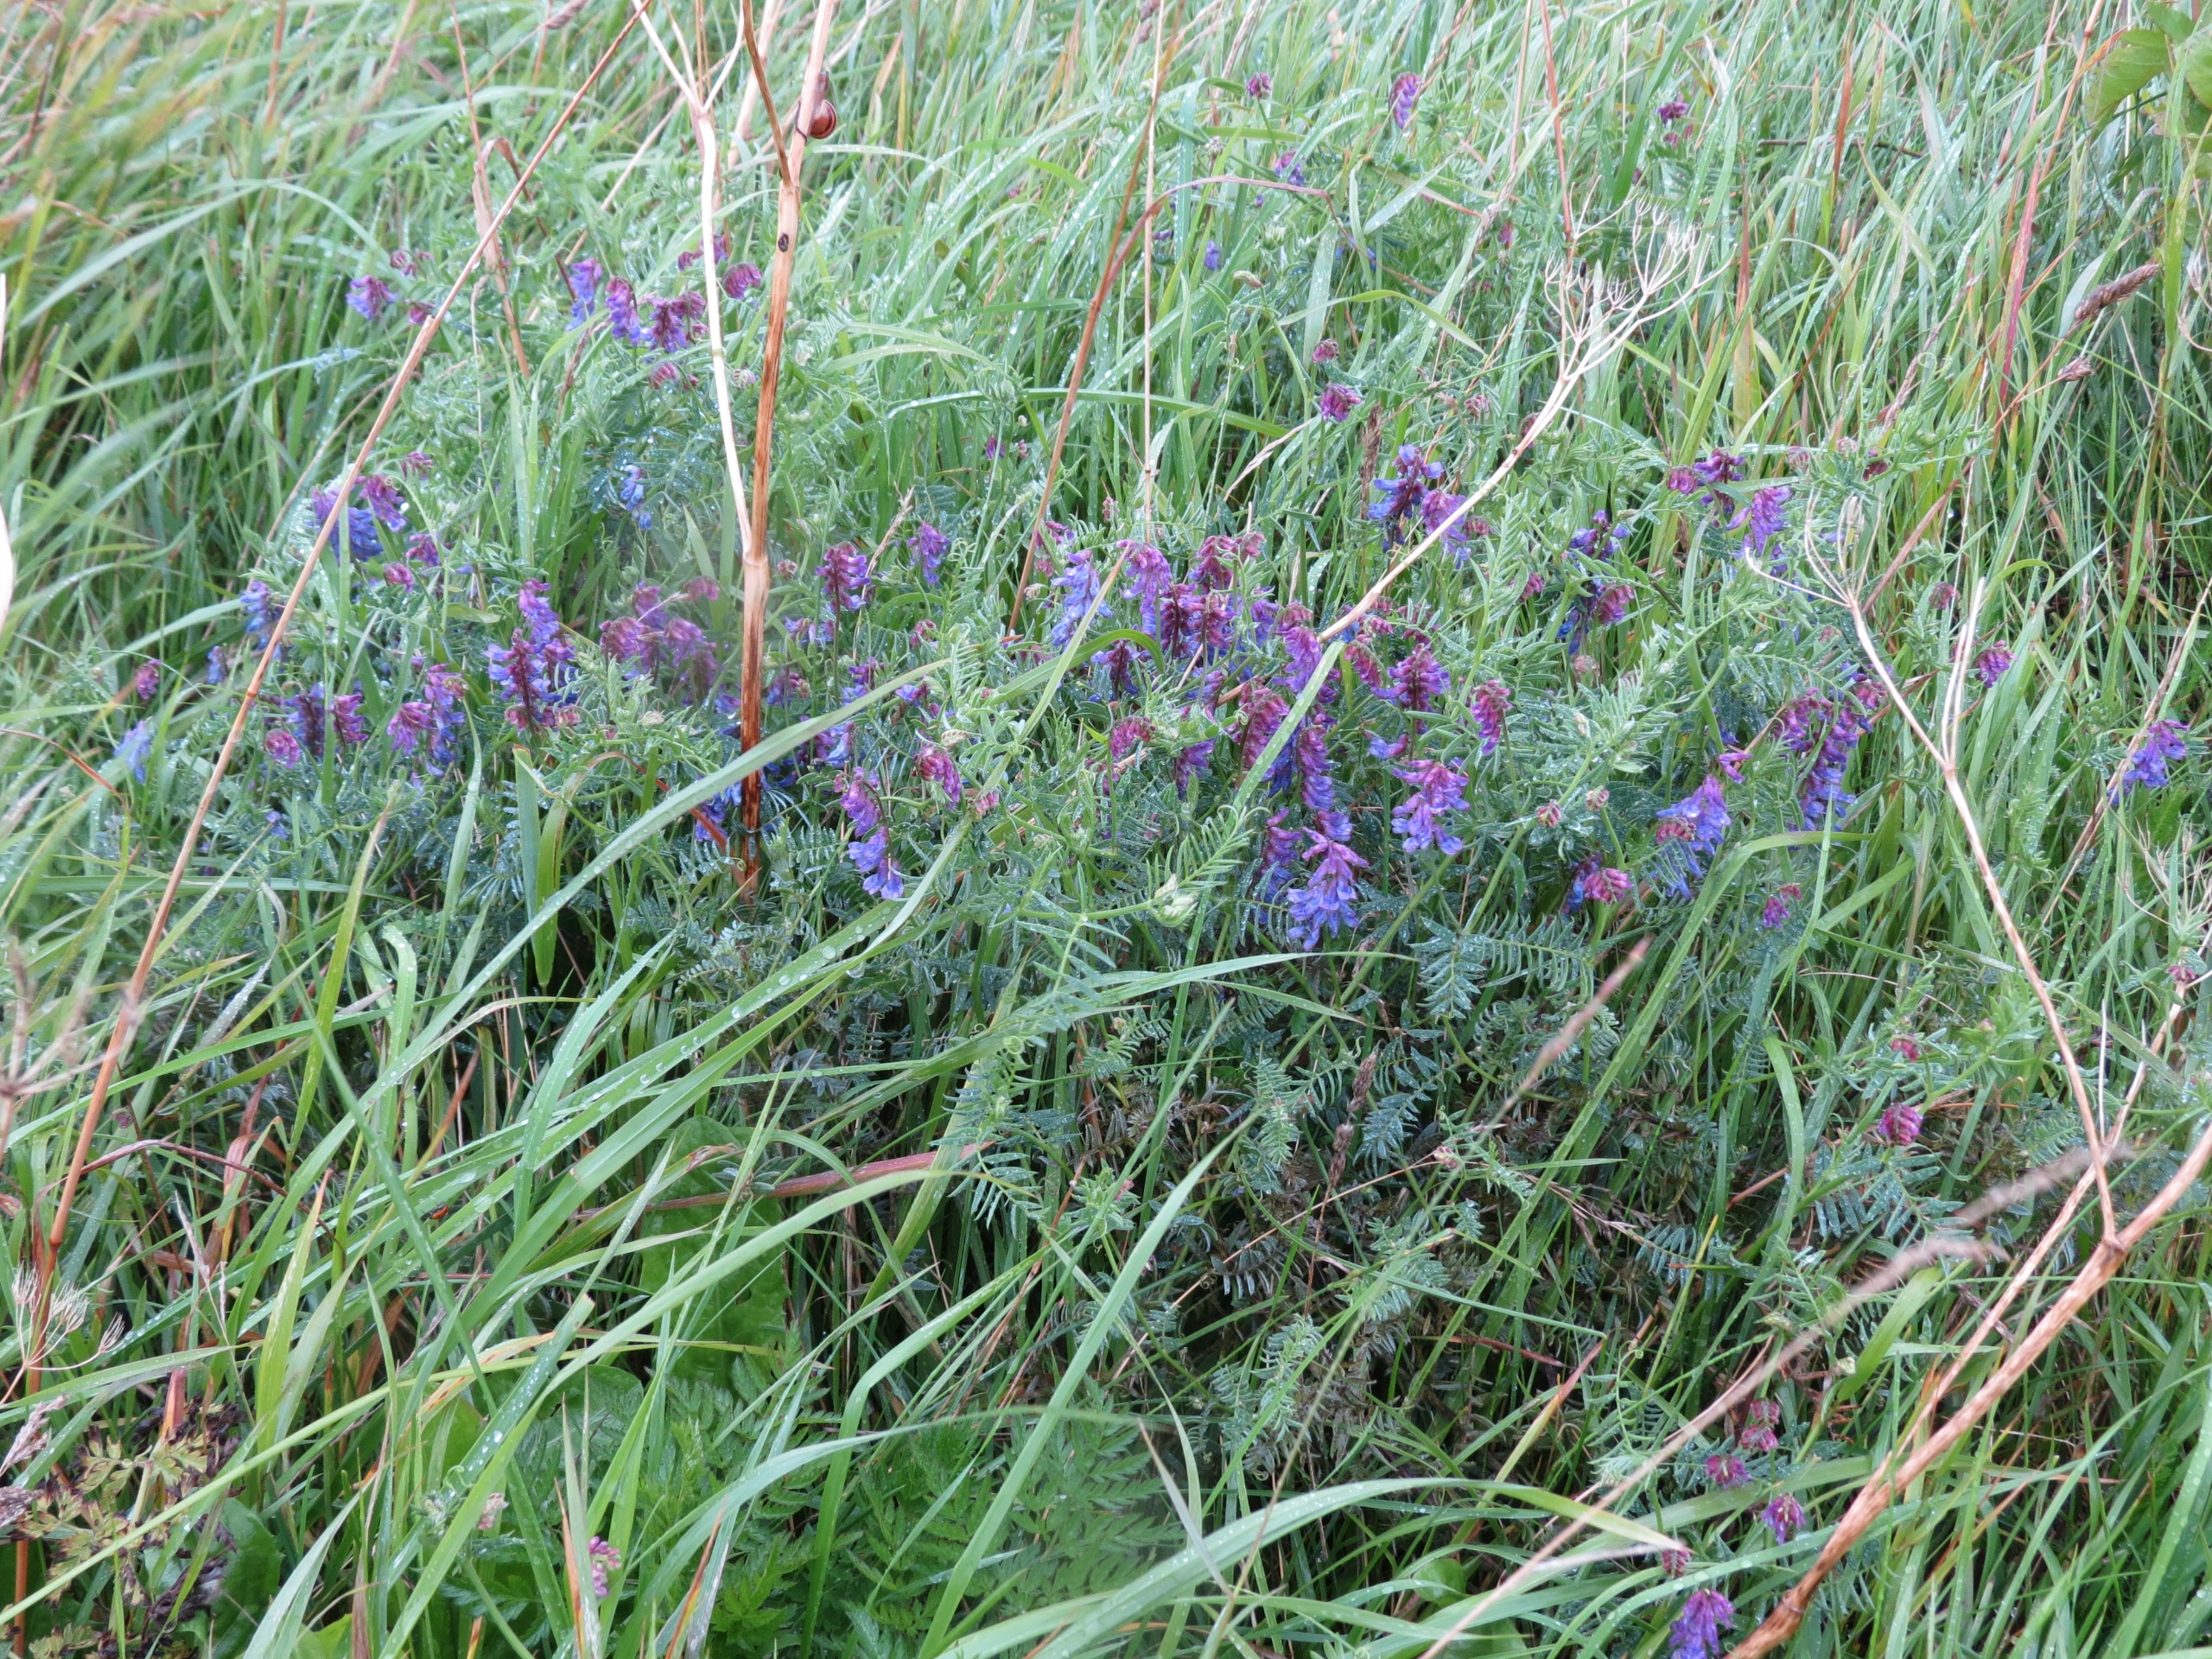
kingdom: Plantae
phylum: Tracheophyta
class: Magnoliopsida
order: Fabales
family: Fabaceae
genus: Vicia
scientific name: Vicia cracca
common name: Muse-vikke
